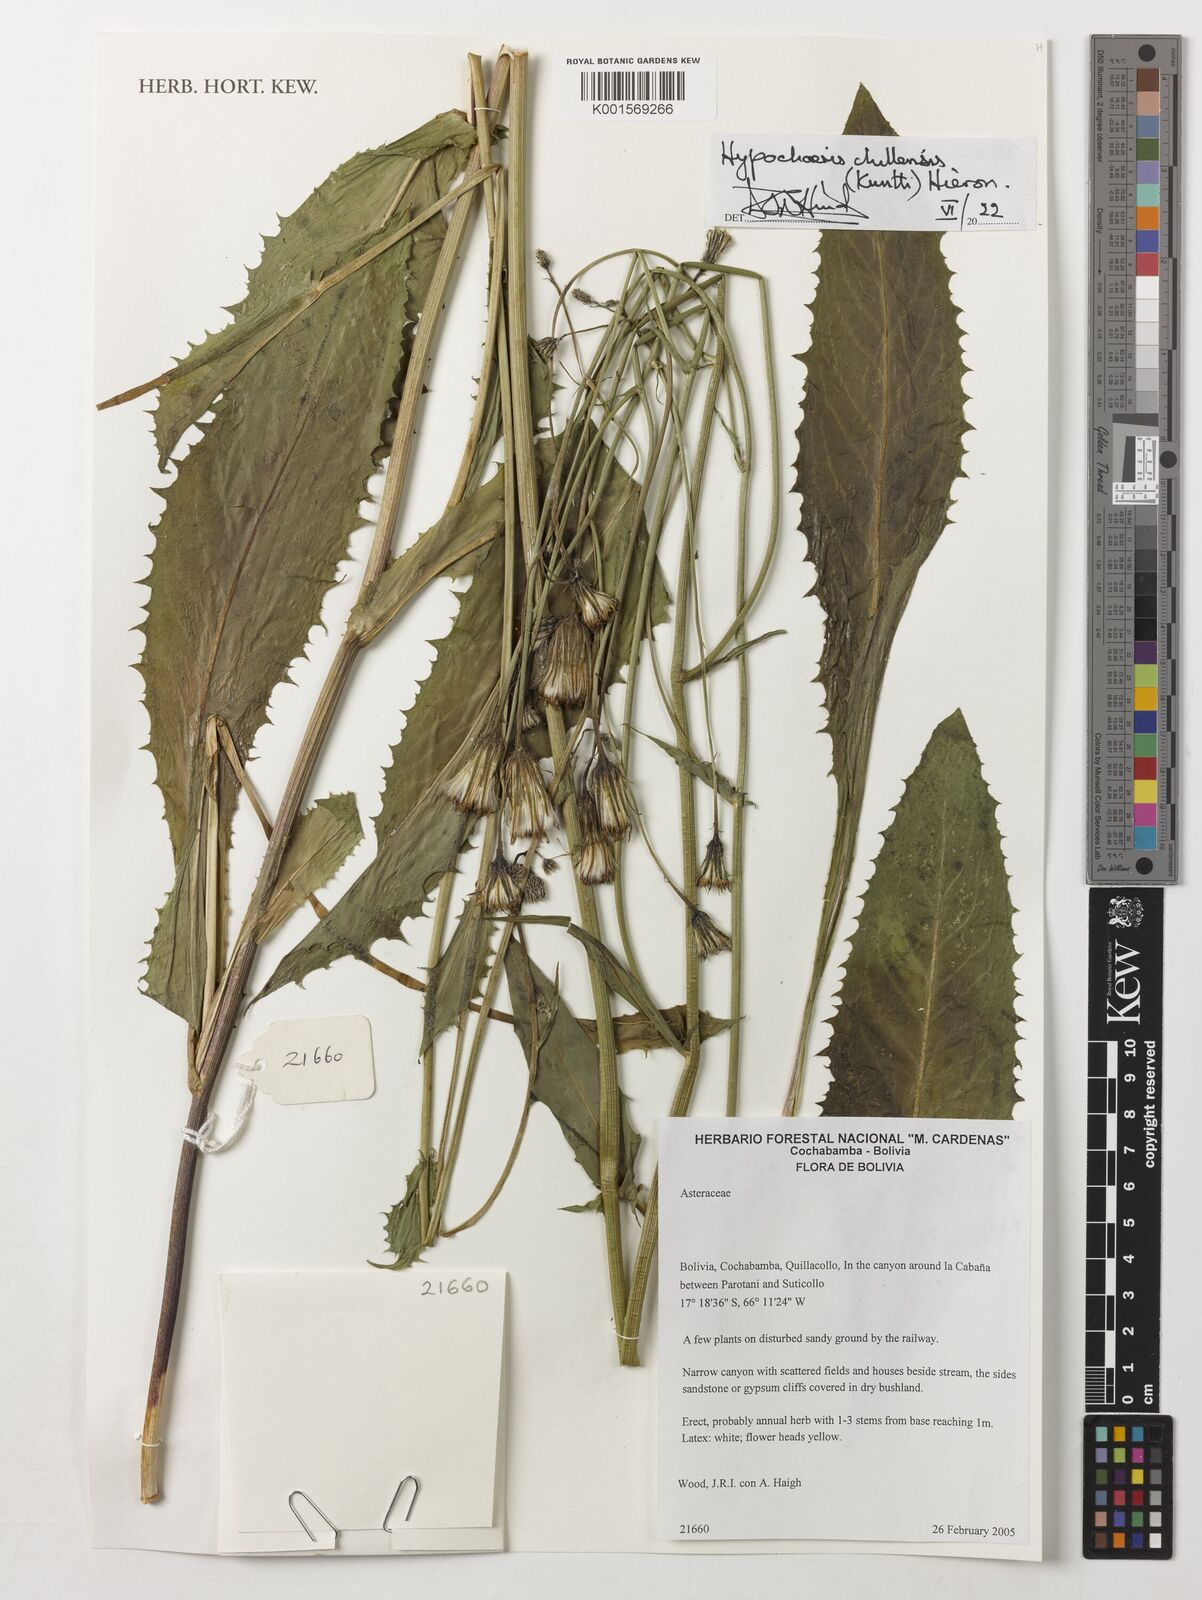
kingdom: Plantae
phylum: Tracheophyta
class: Magnoliopsida
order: Asterales
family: Asteraceae
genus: Hypochaeris
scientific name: Hypochaeris chillensis
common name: Brazilian cat's ear
